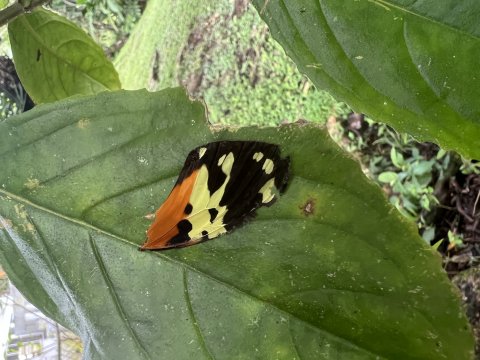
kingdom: Animalia
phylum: Arthropoda
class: Insecta
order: Lepidoptera
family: Nymphalidae
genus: Heliconius
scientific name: Heliconius hecale
